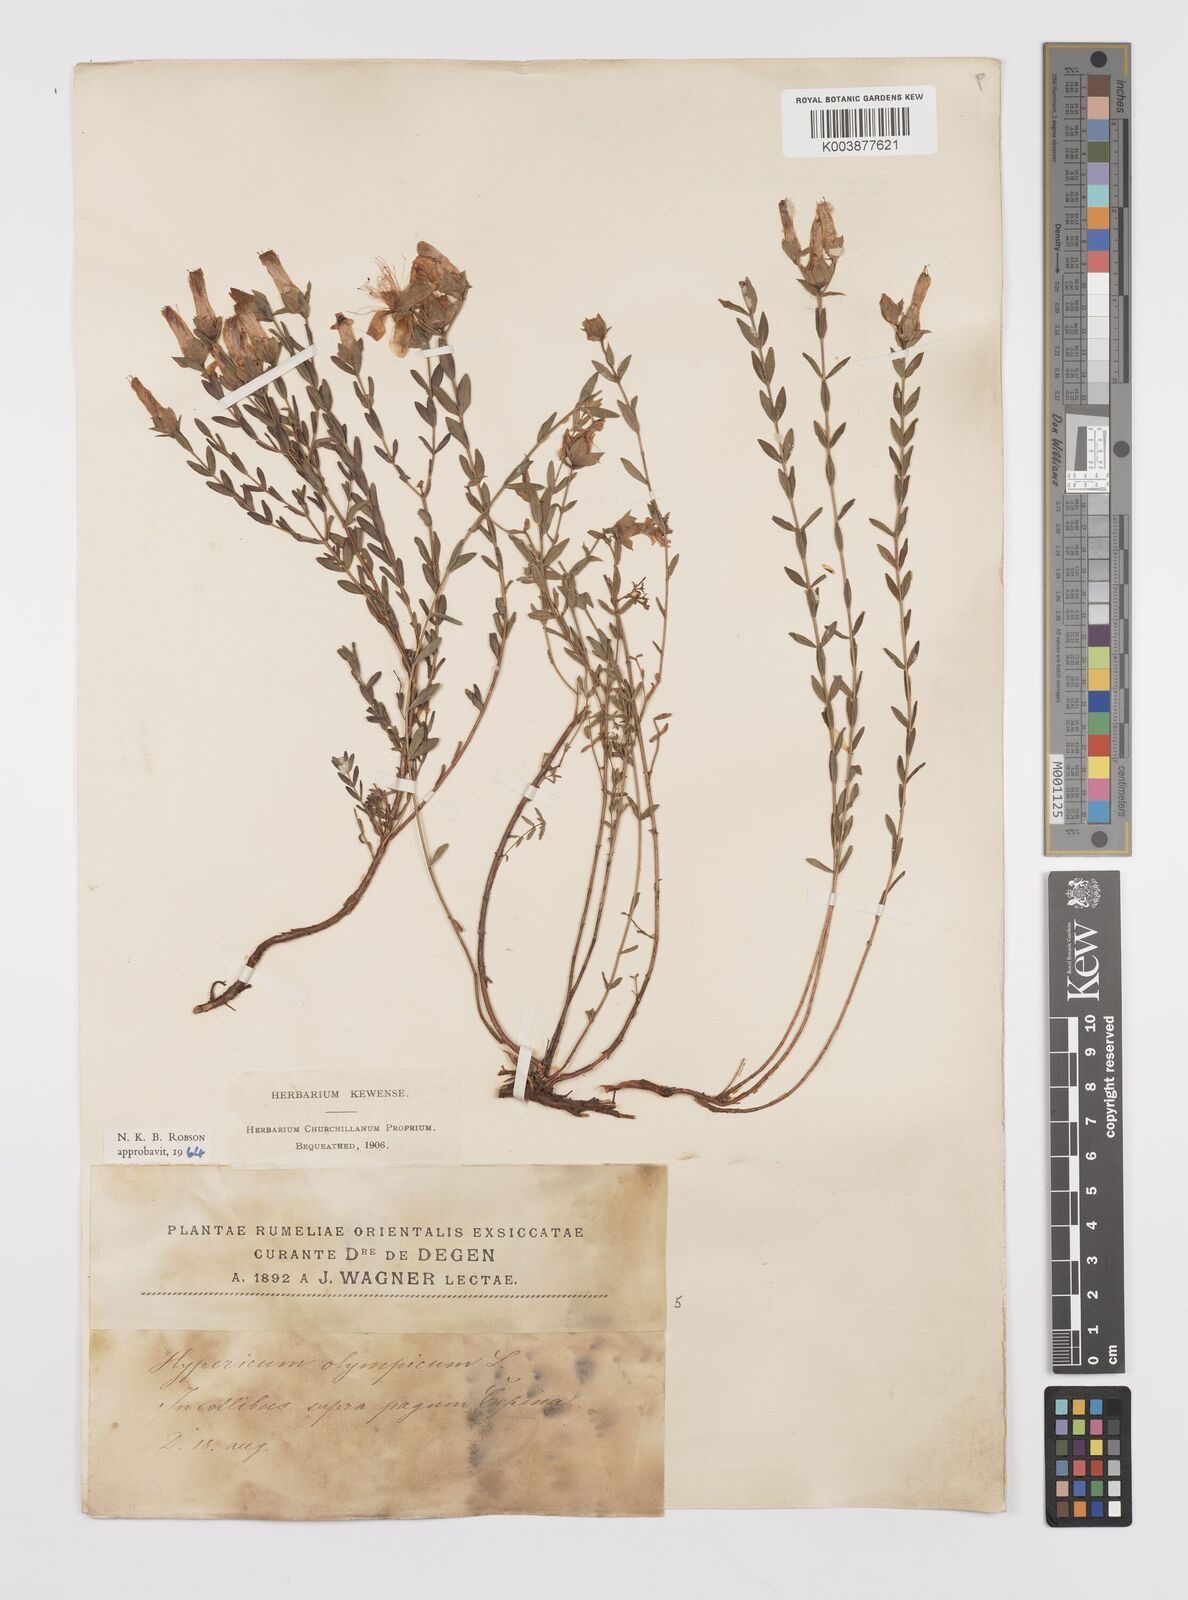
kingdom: Plantae
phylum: Tracheophyta
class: Magnoliopsida
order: Malpighiales
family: Hypericaceae
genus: Hypericum
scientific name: Hypericum olympicum
